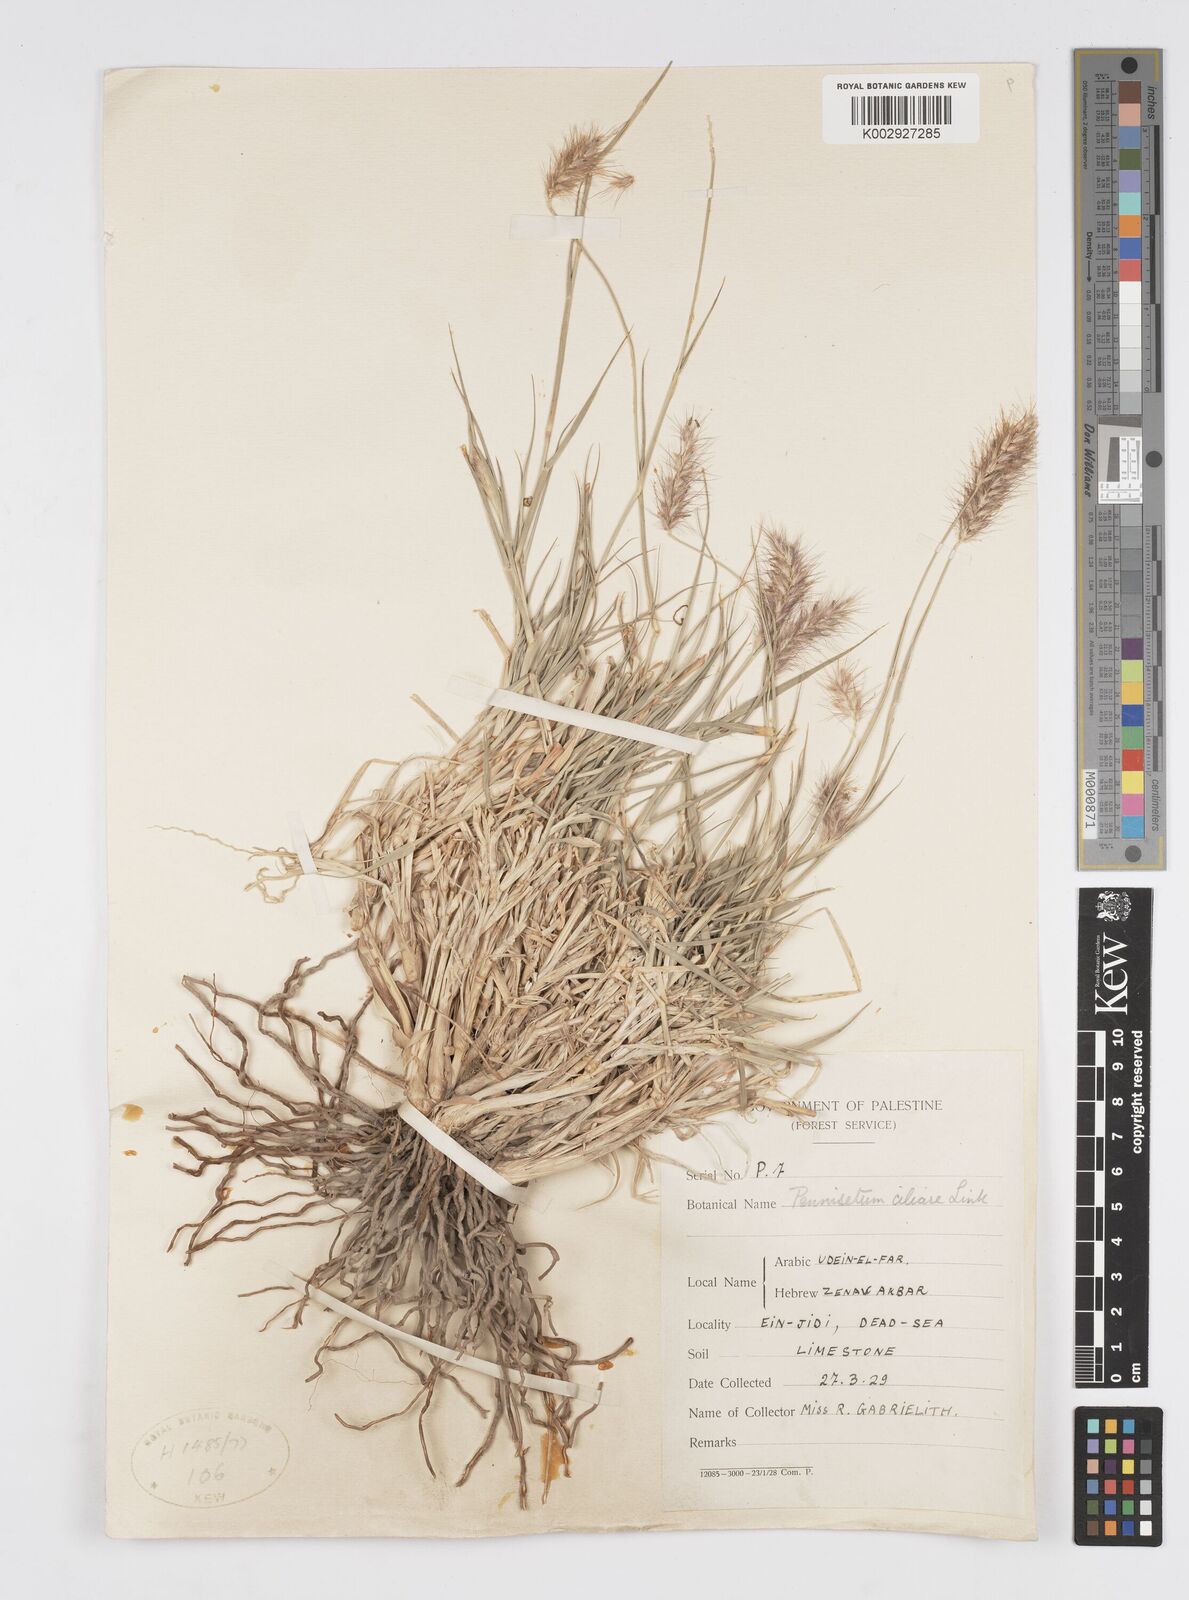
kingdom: Plantae
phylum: Tracheophyta
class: Liliopsida
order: Poales
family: Poaceae
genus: Cenchrus
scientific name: Cenchrus ciliaris
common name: Buffelgrass
